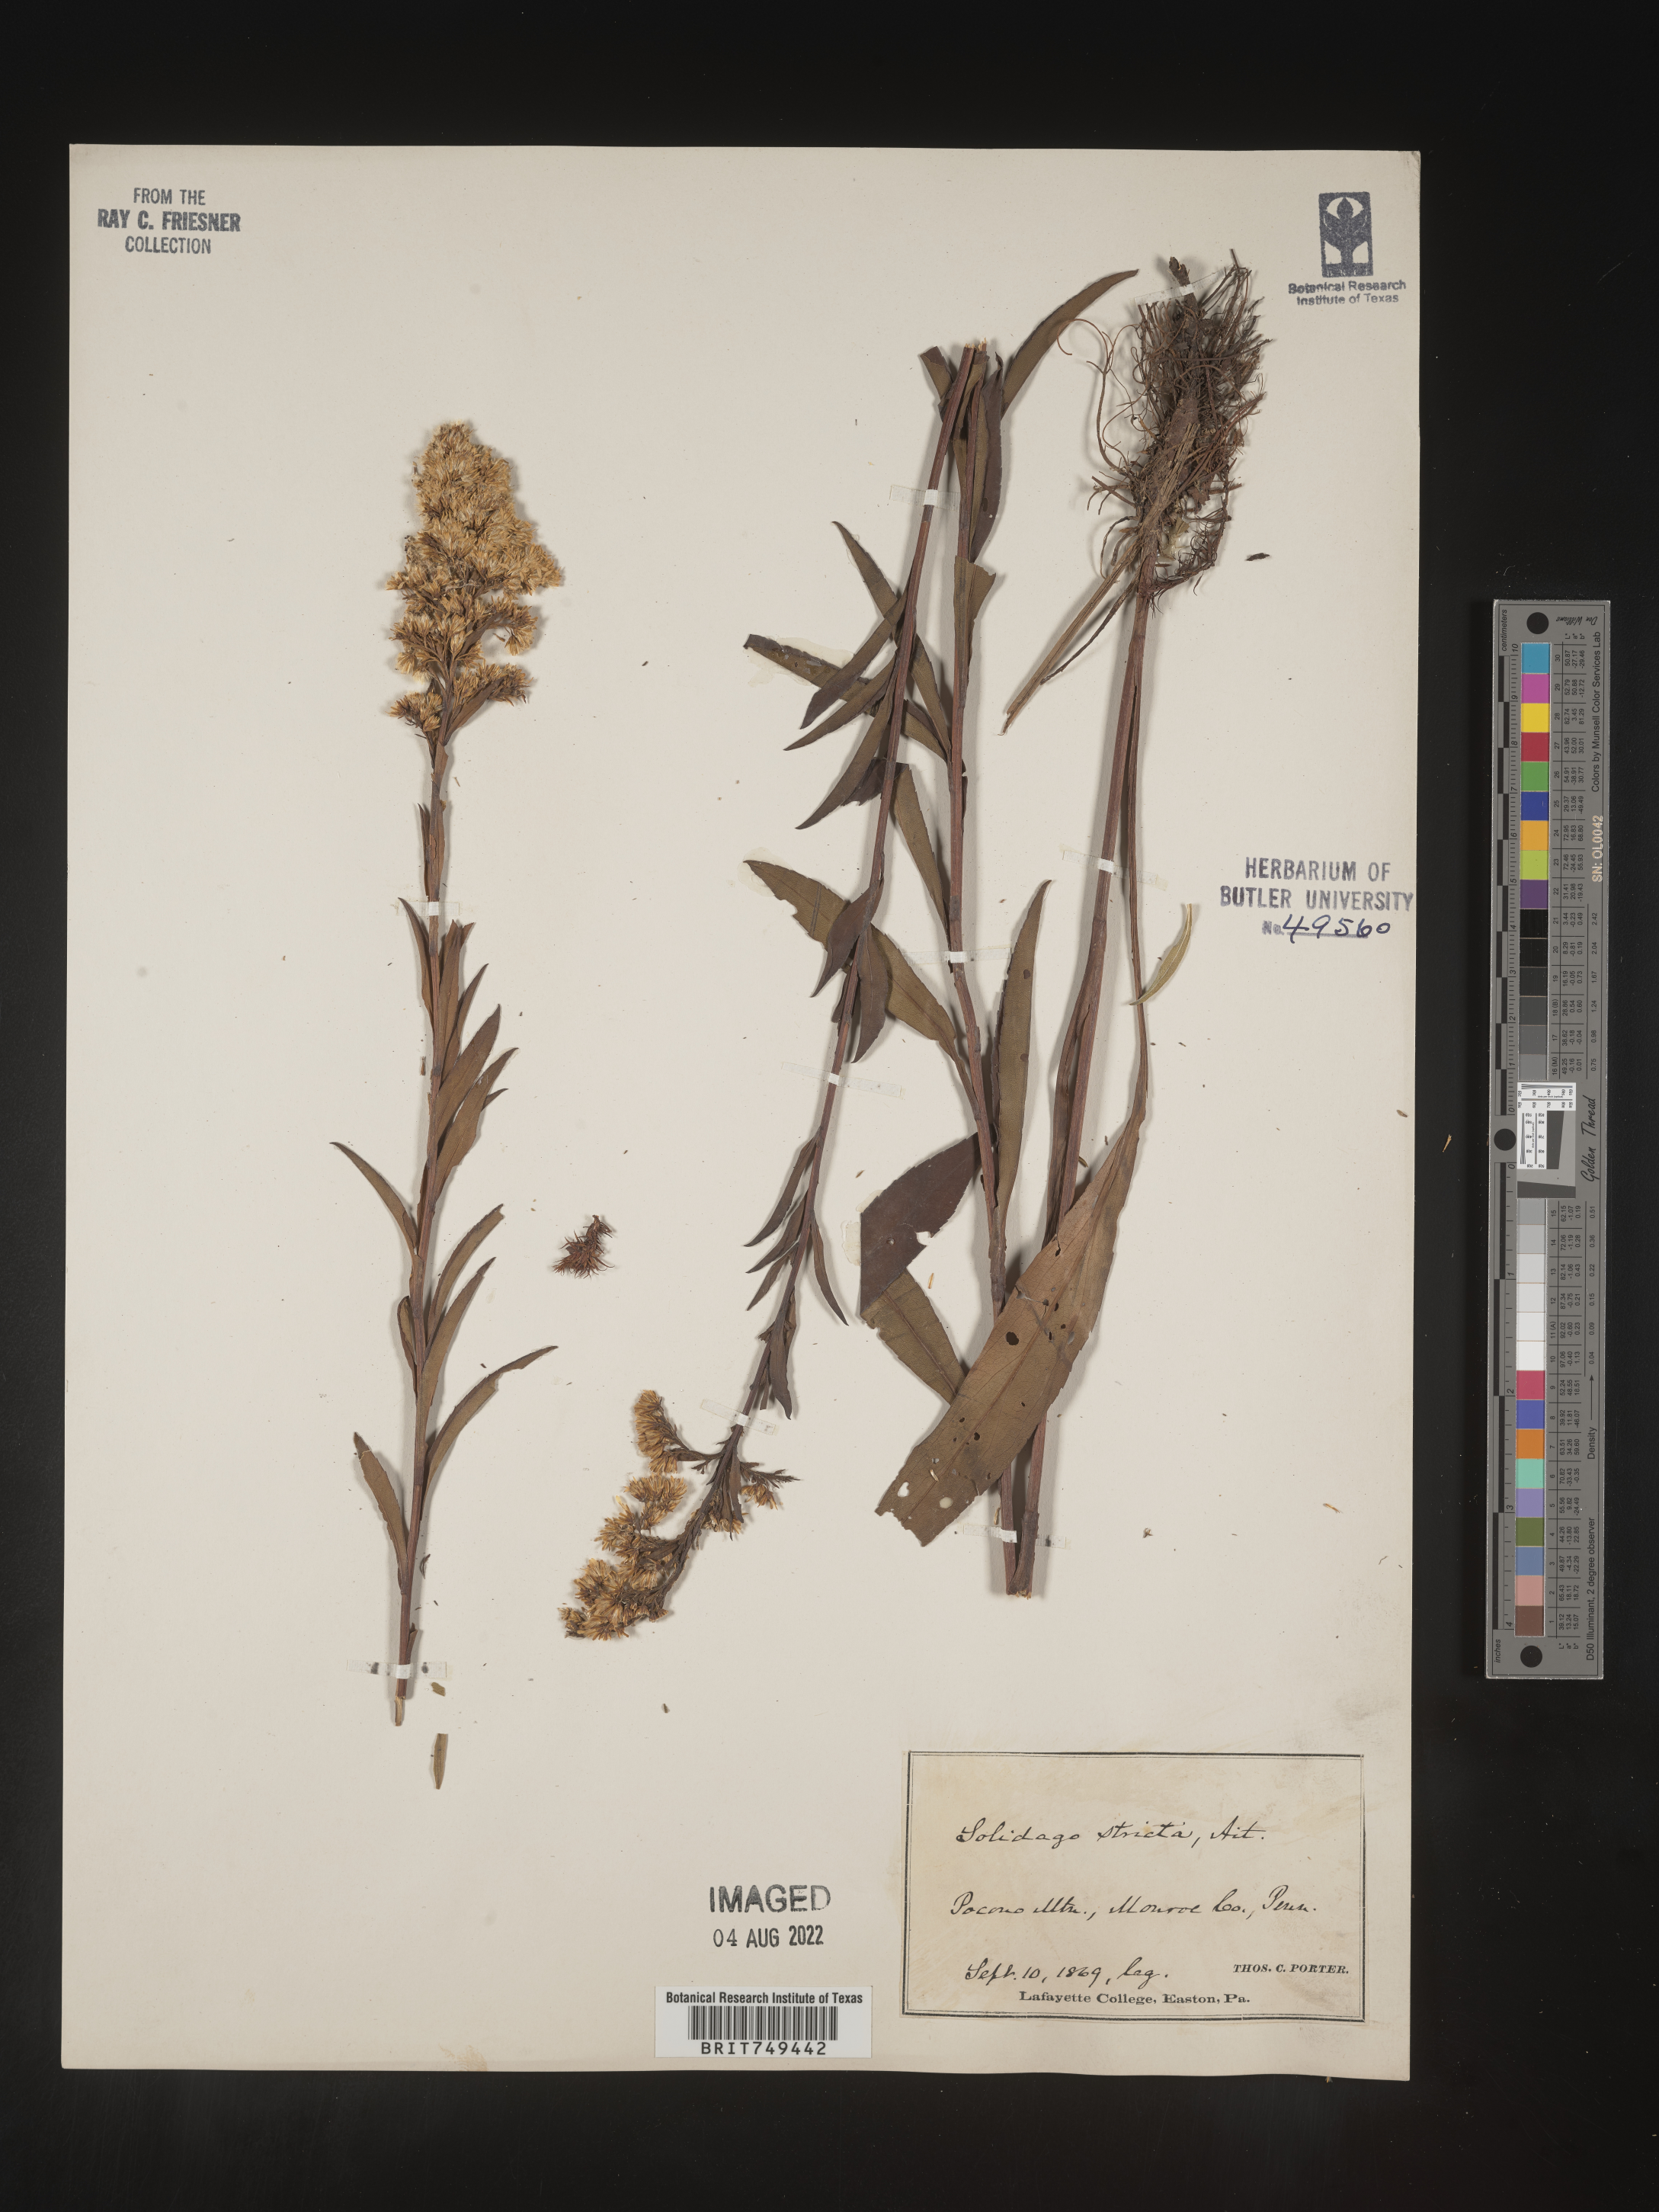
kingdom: Plantae
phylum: Tracheophyta
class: Magnoliopsida
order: Asterales
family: Asteraceae
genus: Solidago
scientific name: Solidago stricta
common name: Pine barren bog goldenrod
